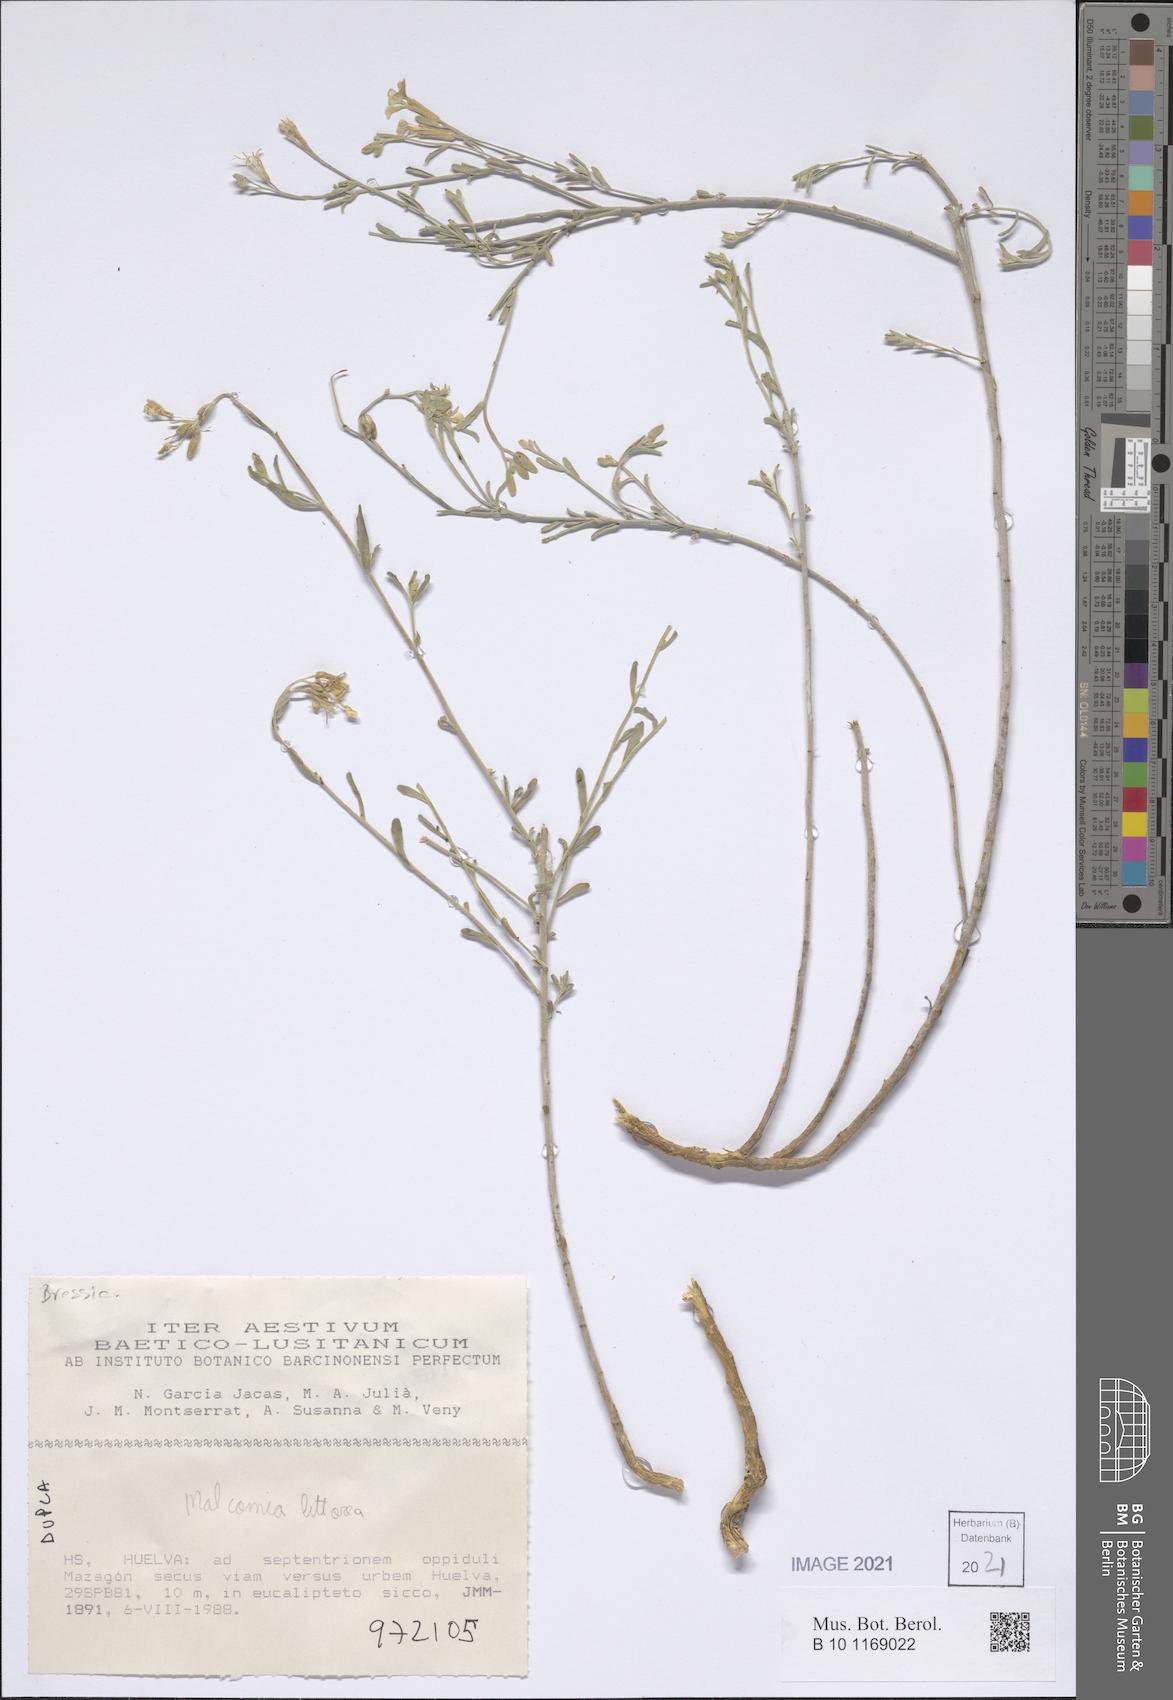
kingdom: Plantae
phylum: Tracheophyta
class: Magnoliopsida
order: Brassicales
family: Brassicaceae
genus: Marcuskochia
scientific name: Marcuskochia littorea
